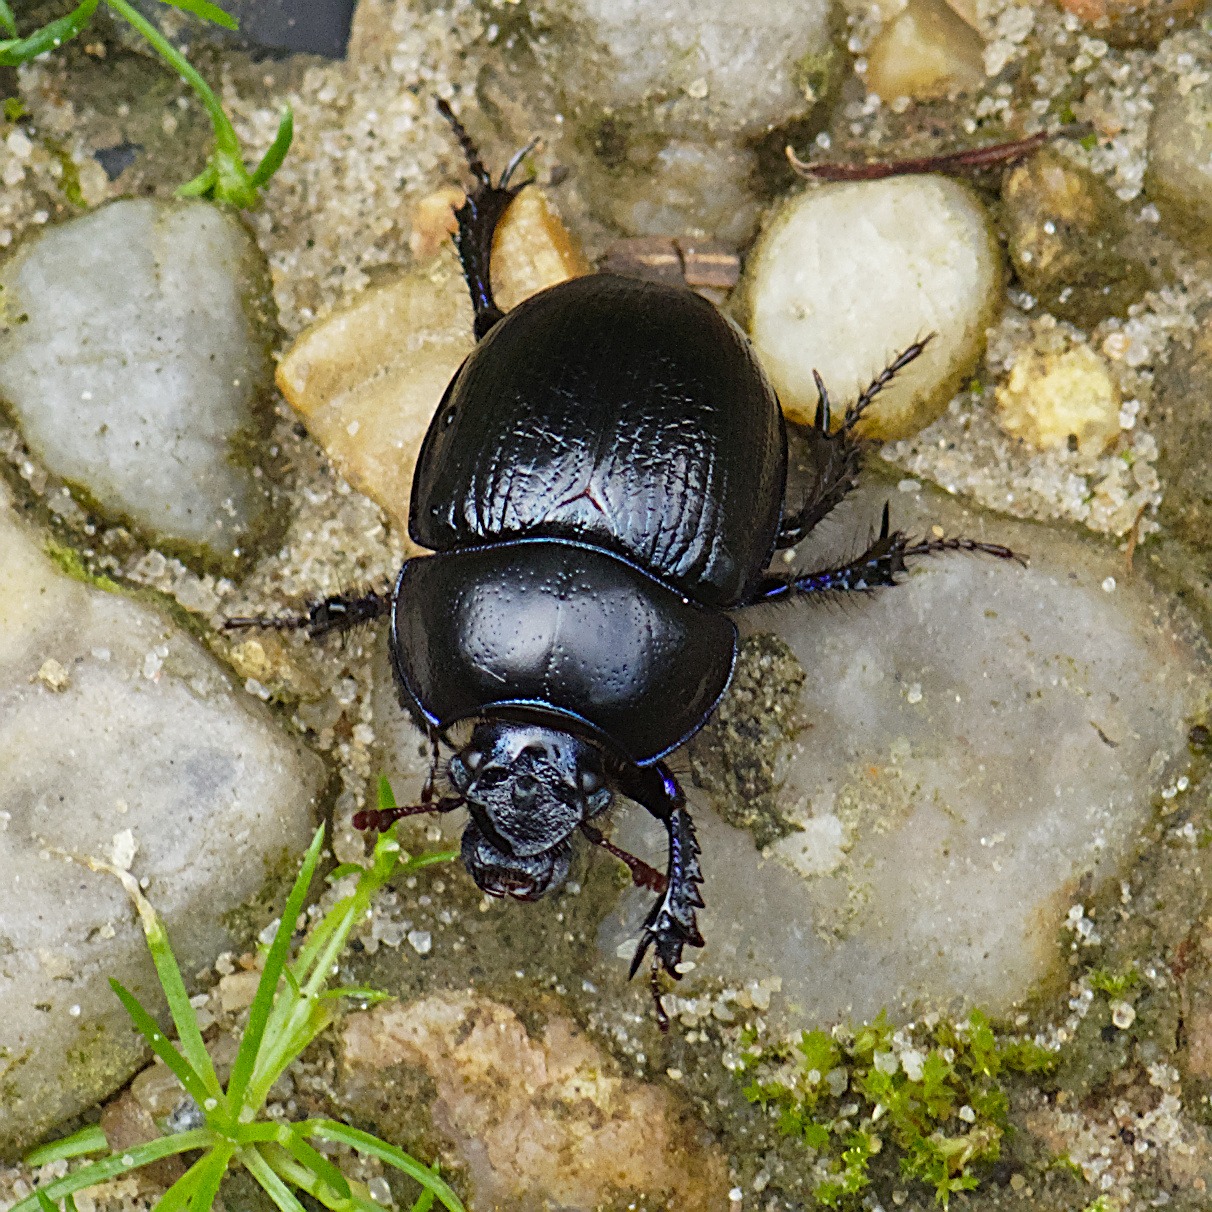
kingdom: Animalia
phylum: Arthropoda
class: Insecta
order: Coleoptera
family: Geotrupidae
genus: Anoplotrupes
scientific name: Anoplotrupes stercorosus
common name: Skovskarnbasse
